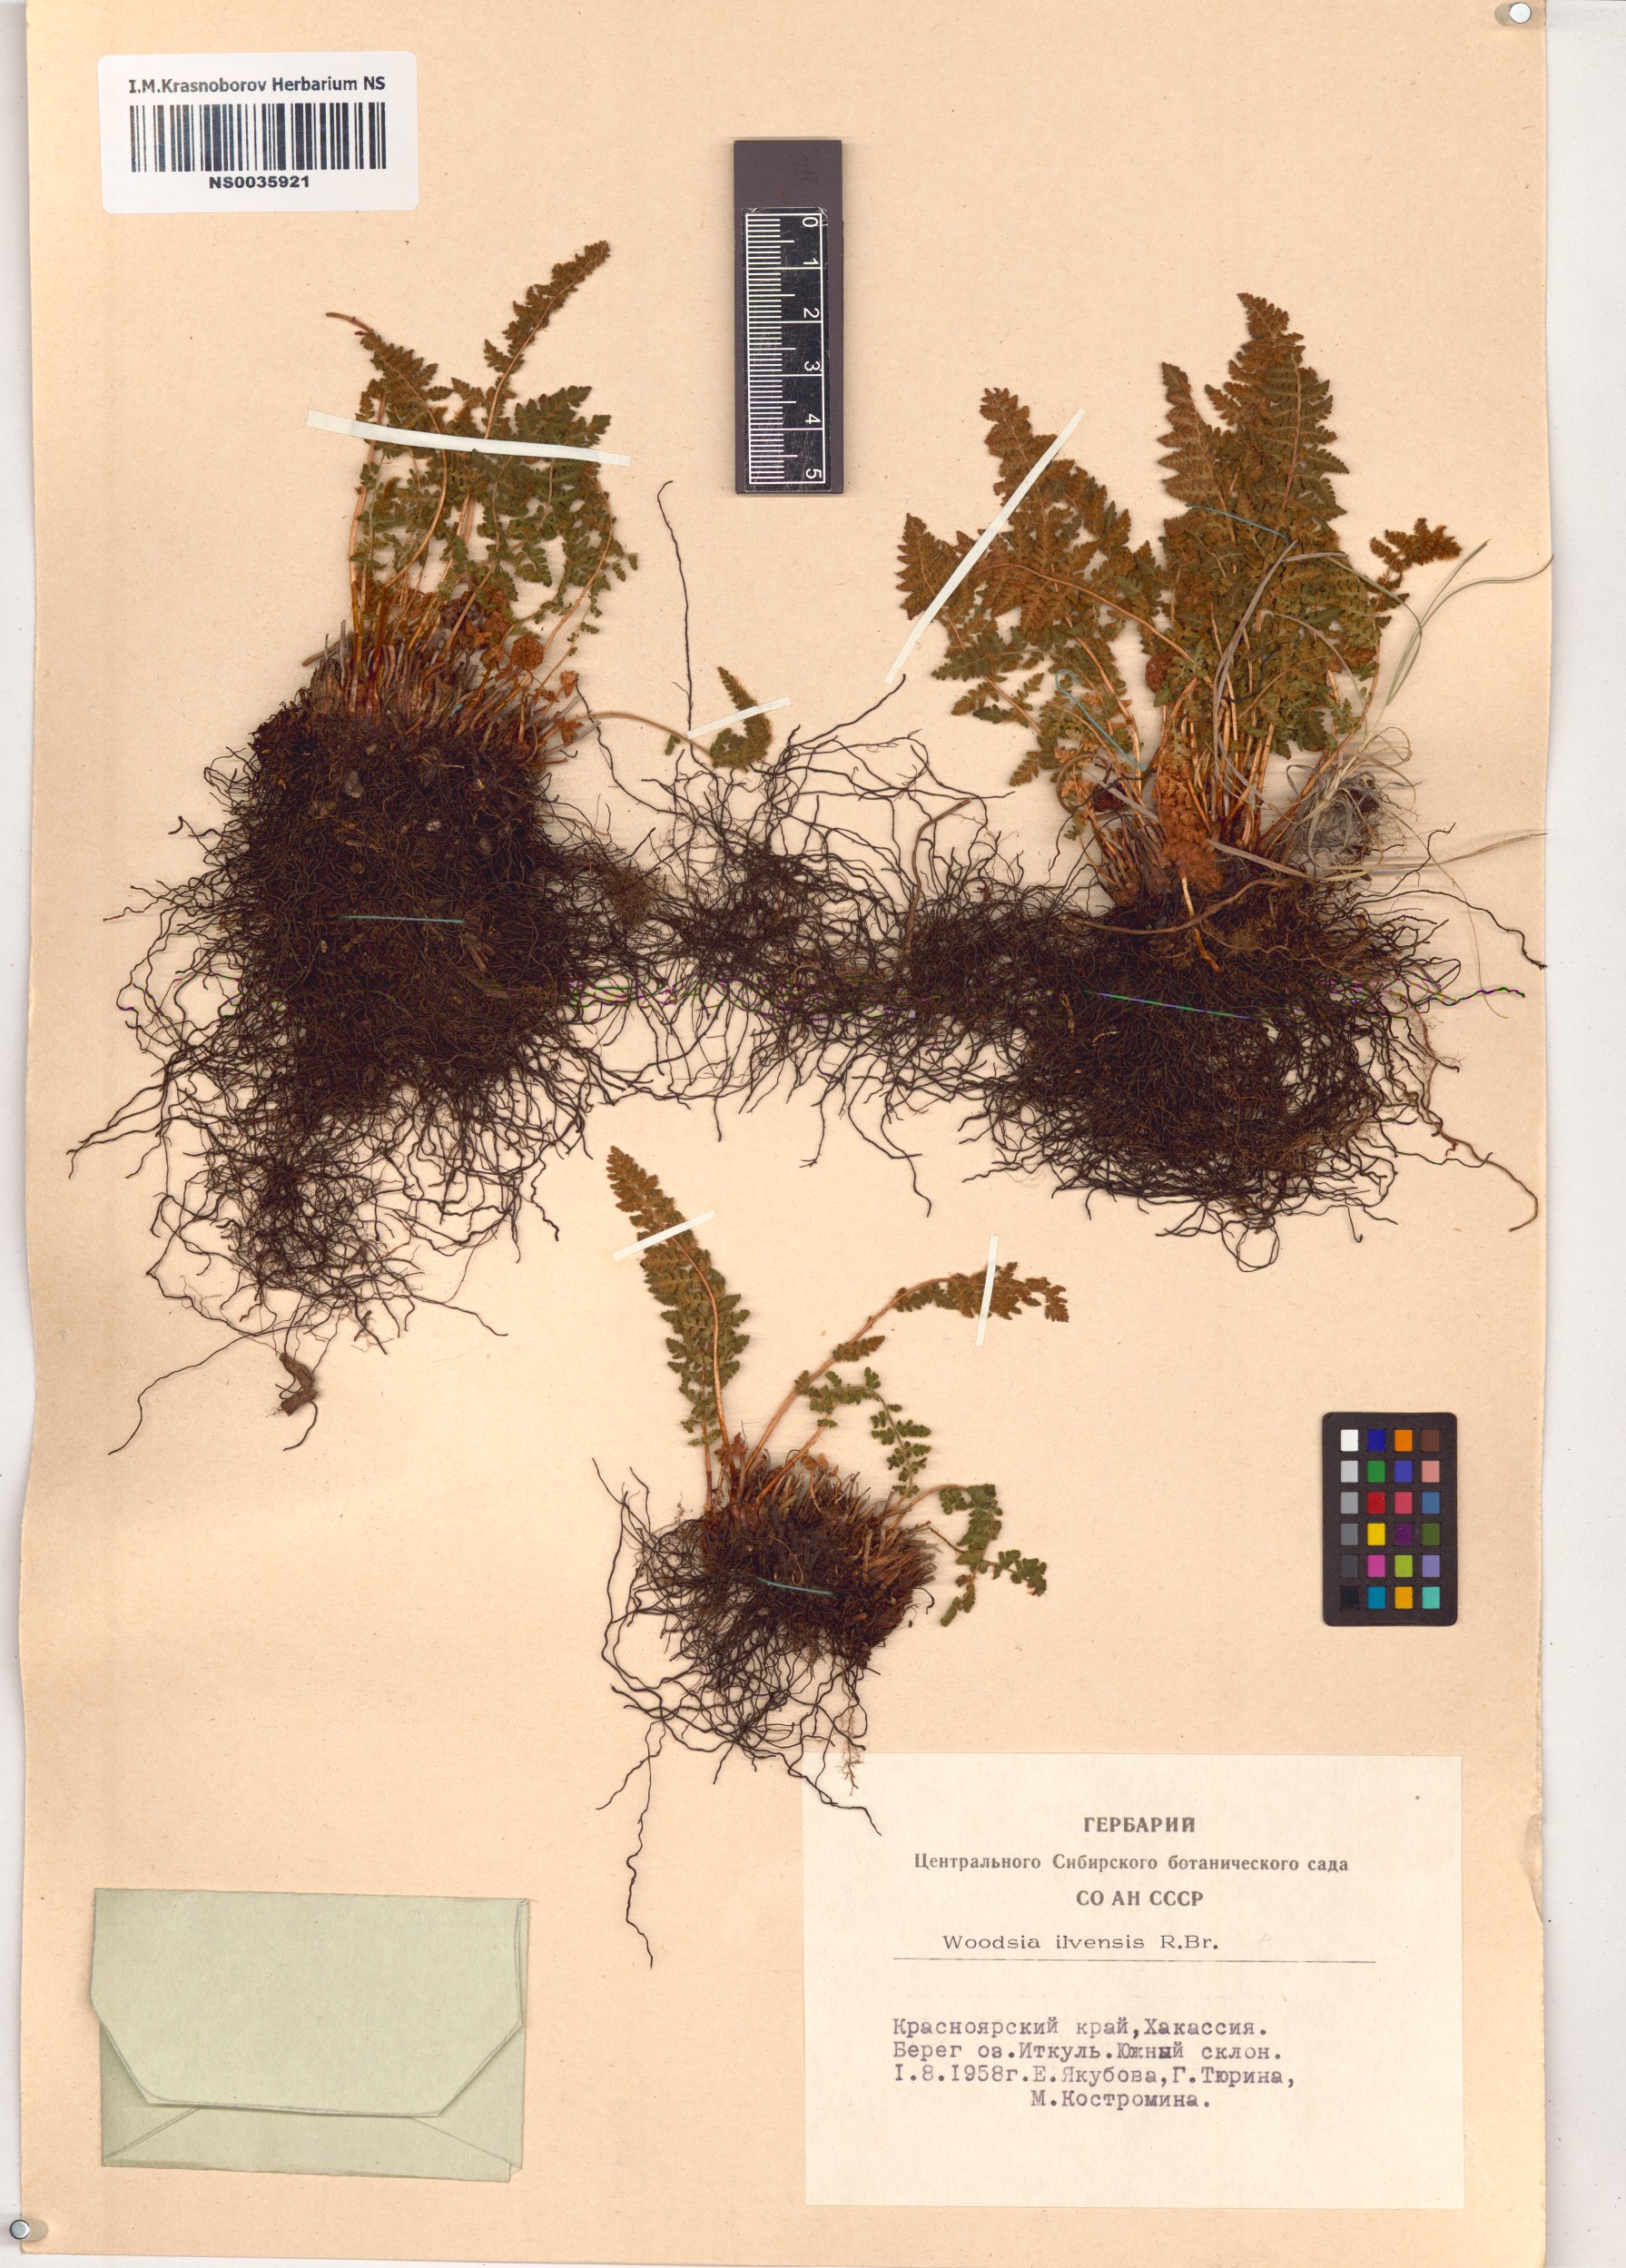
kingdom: Plantae
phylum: Tracheophyta
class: Polypodiopsida
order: Polypodiales
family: Woodsiaceae
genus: Woodsia
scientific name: Woodsia ilvensis
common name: Fragrant woodsia
